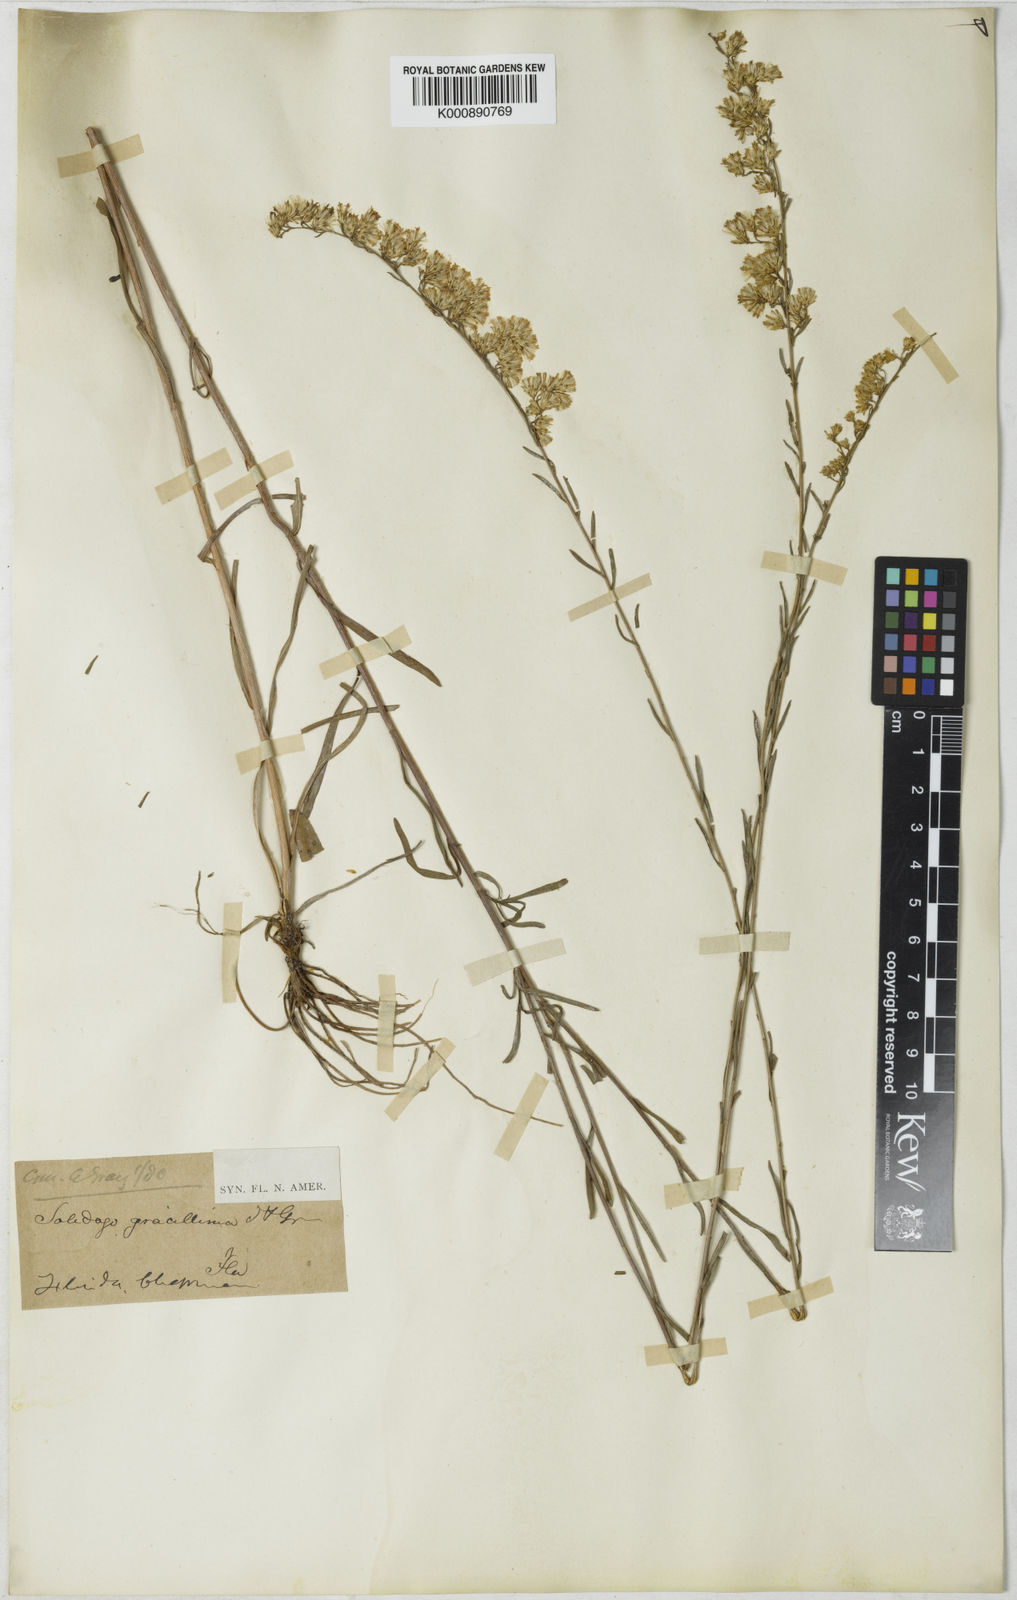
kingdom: Plantae
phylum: Tracheophyta
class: Magnoliopsida
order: Asterales
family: Asteraceae
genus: Solidago
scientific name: Solidago gracillima
